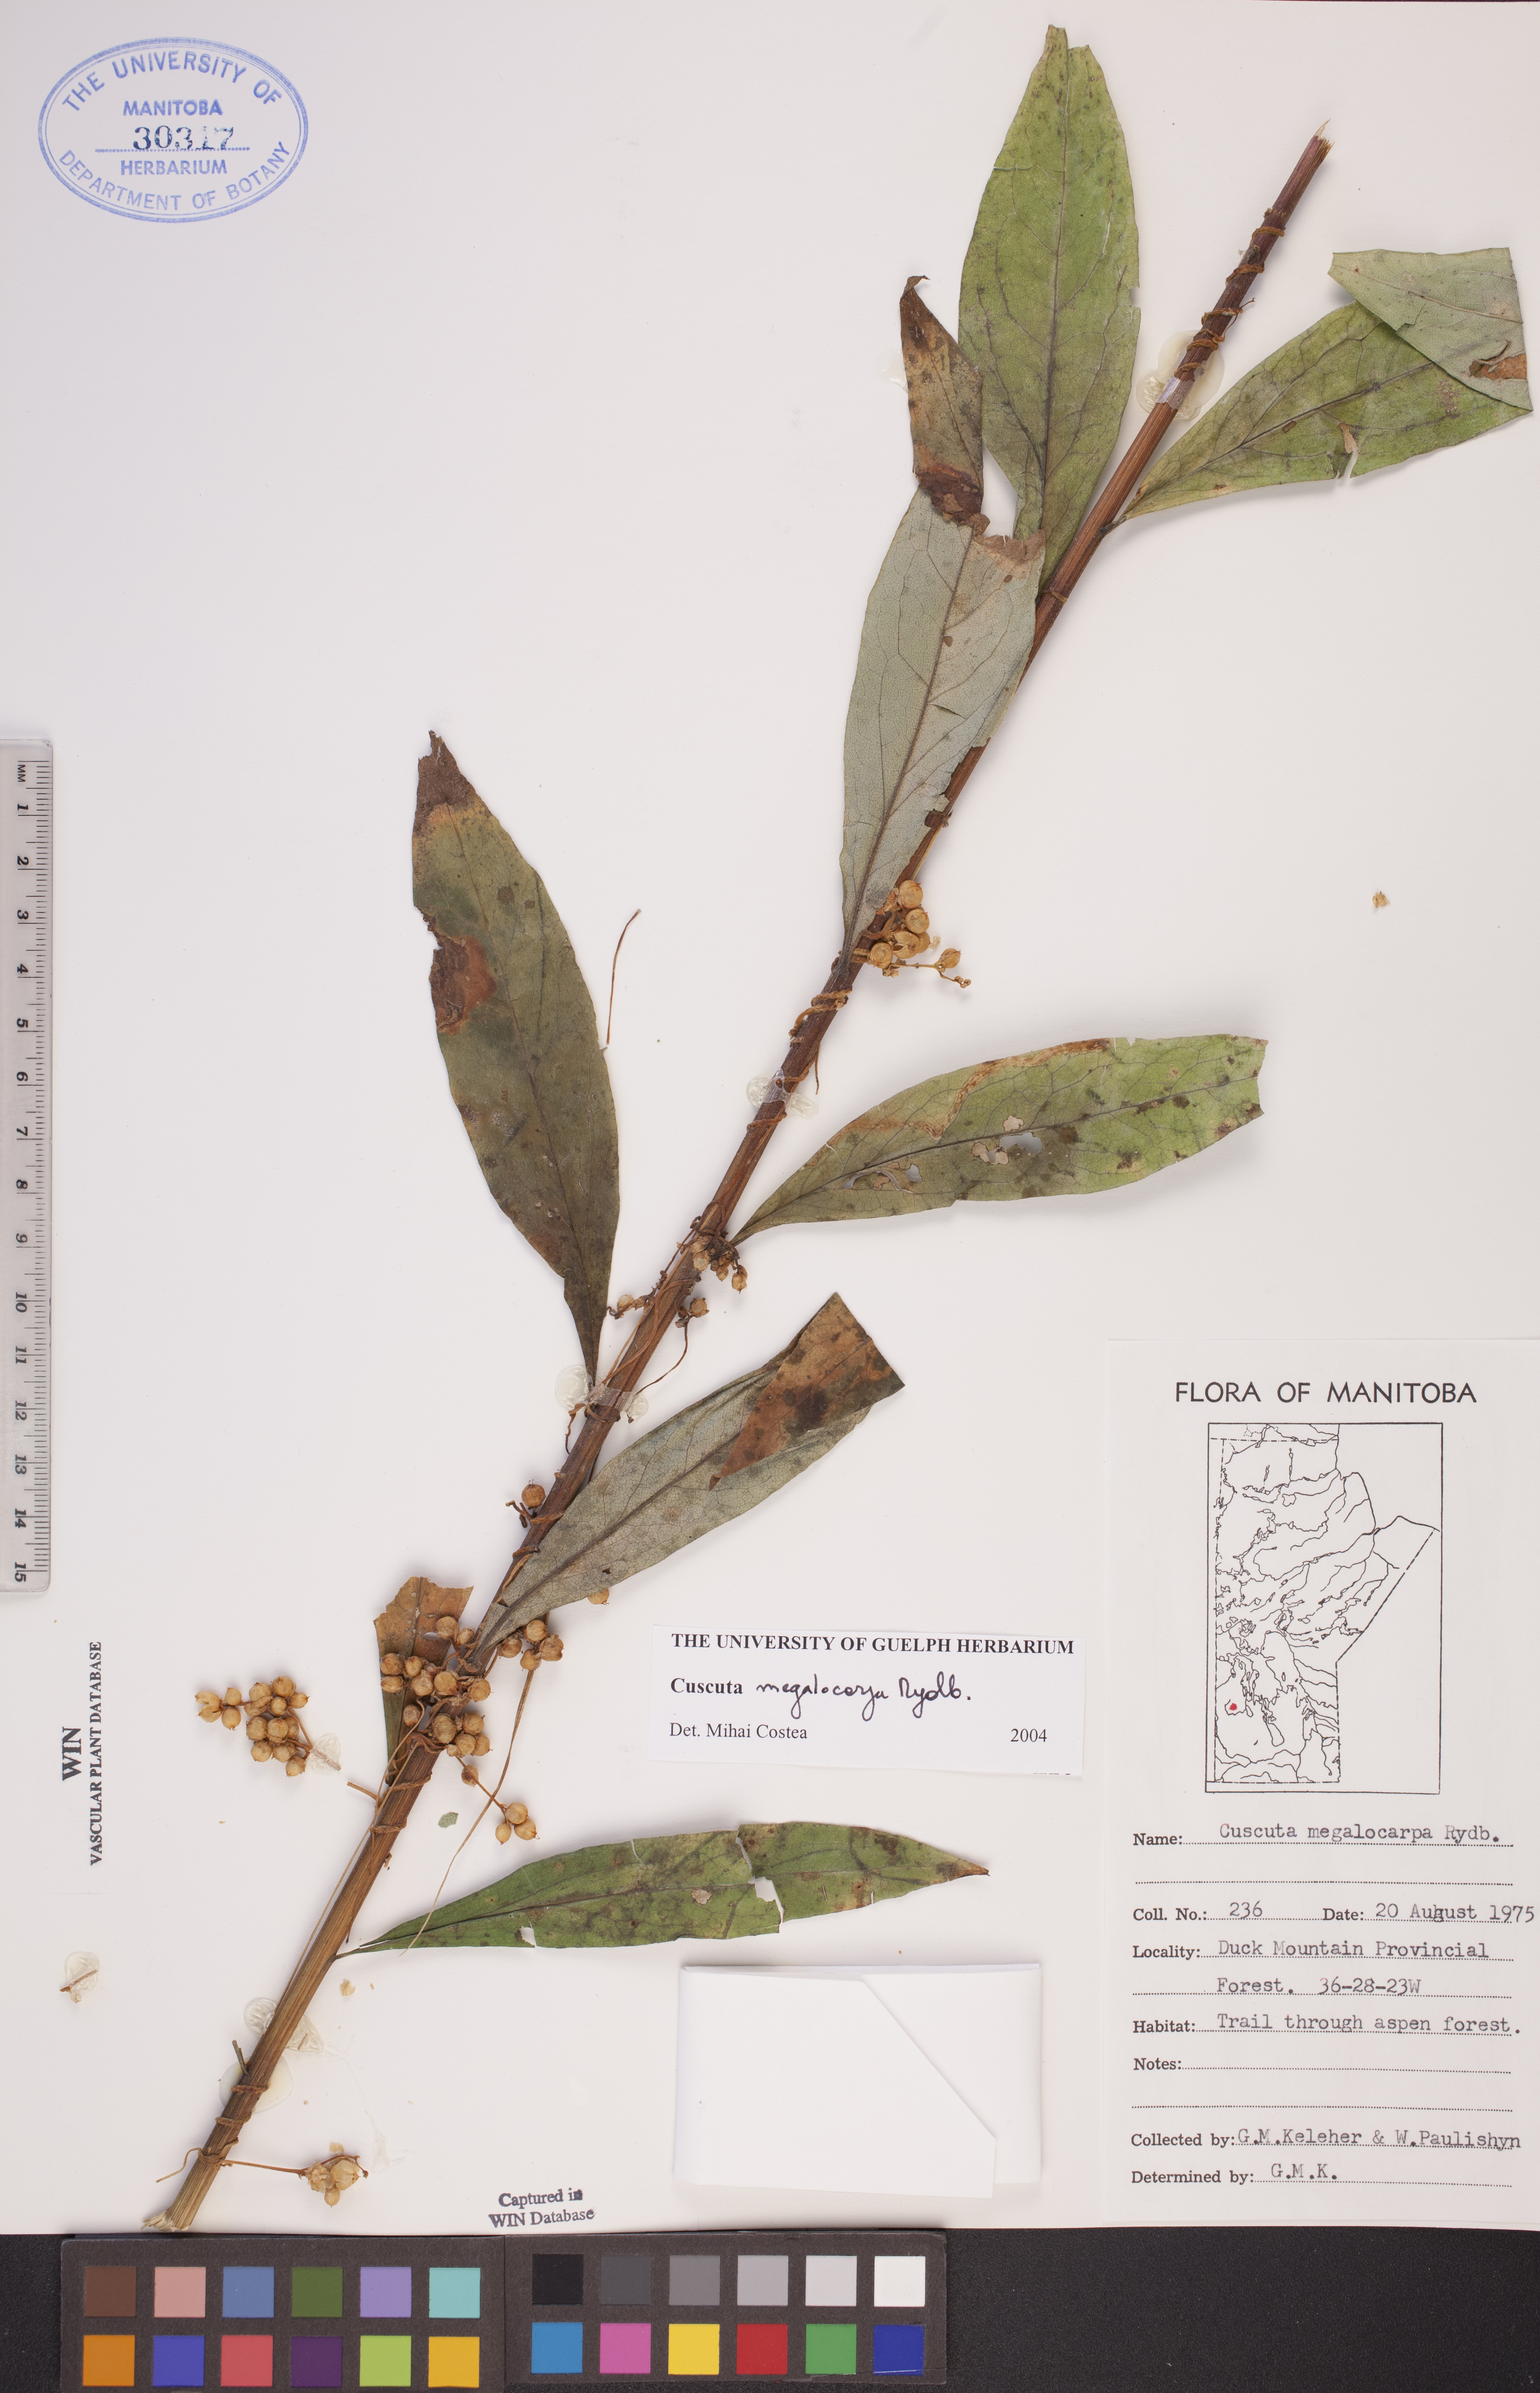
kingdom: Plantae
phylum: Tracheophyta
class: Magnoliopsida
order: Solanales
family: Convolvulaceae
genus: Cuscuta
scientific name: Cuscuta umbrosa
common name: Bigfruit dodder
